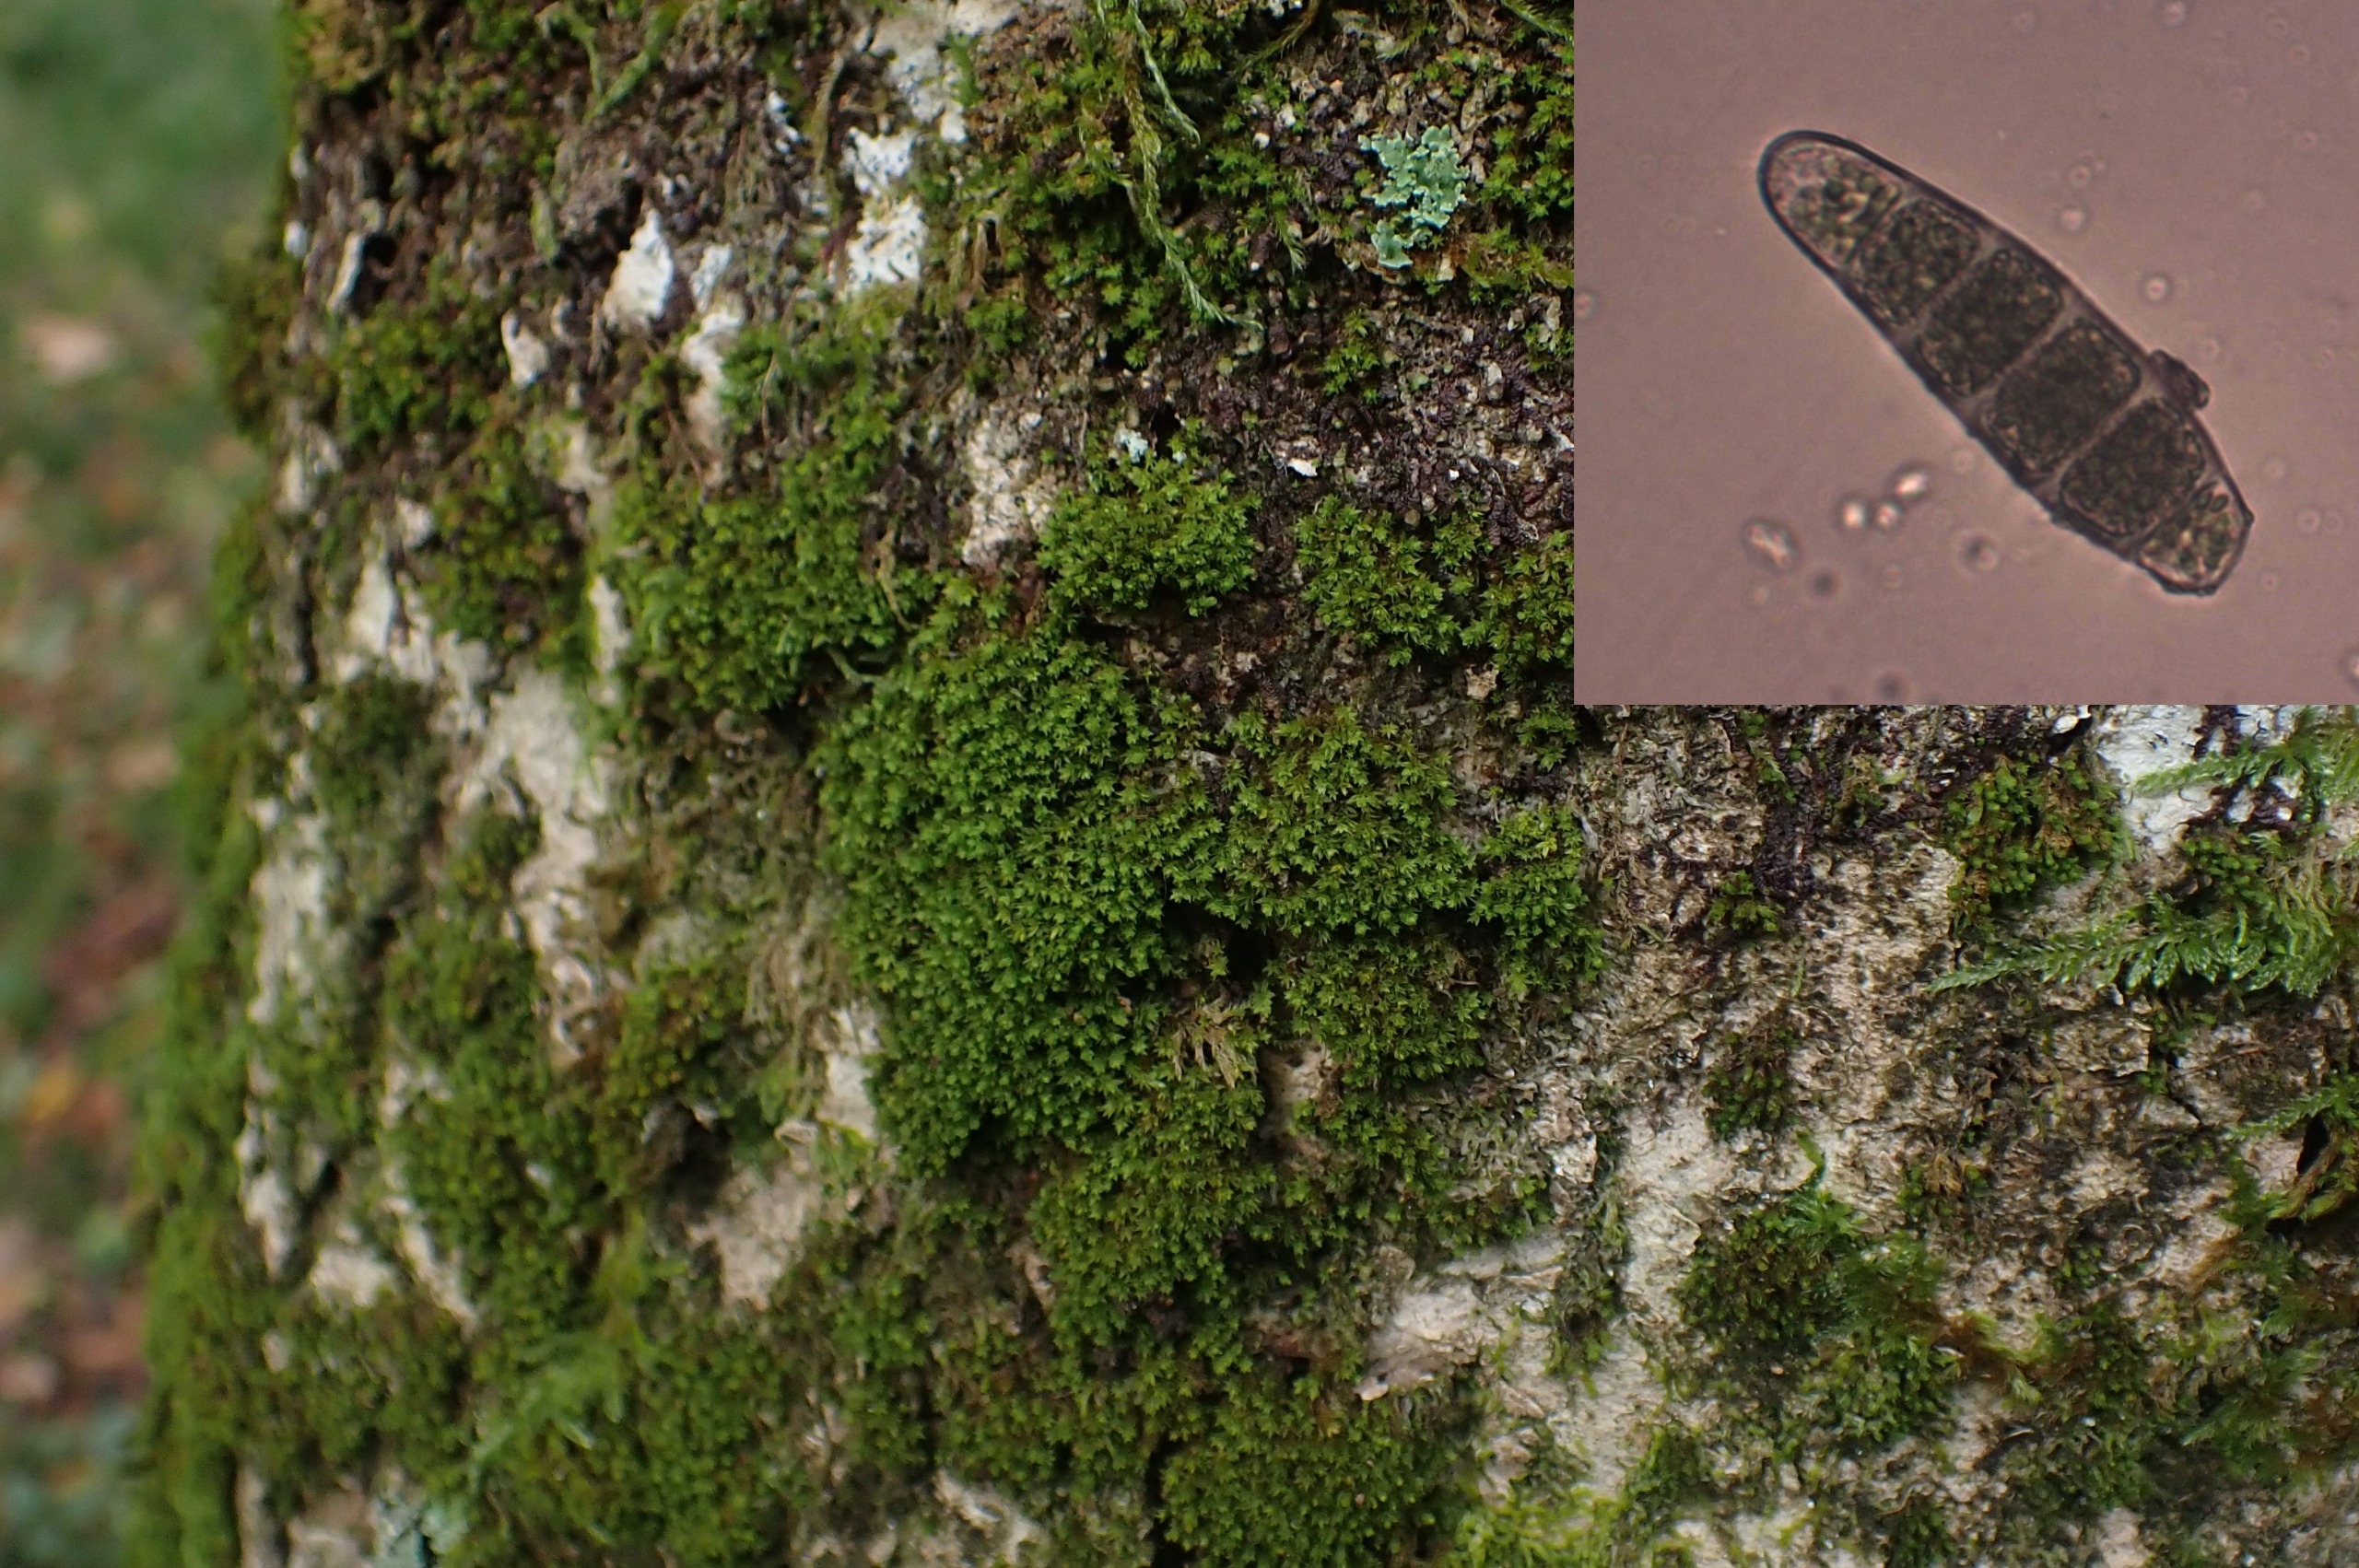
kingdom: Plantae
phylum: Bryophyta
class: Bryopsida
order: Orthotrichales
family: Orthotrichaceae
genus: Zygodon
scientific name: Zygodon conoideus
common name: Tand-køllemos
